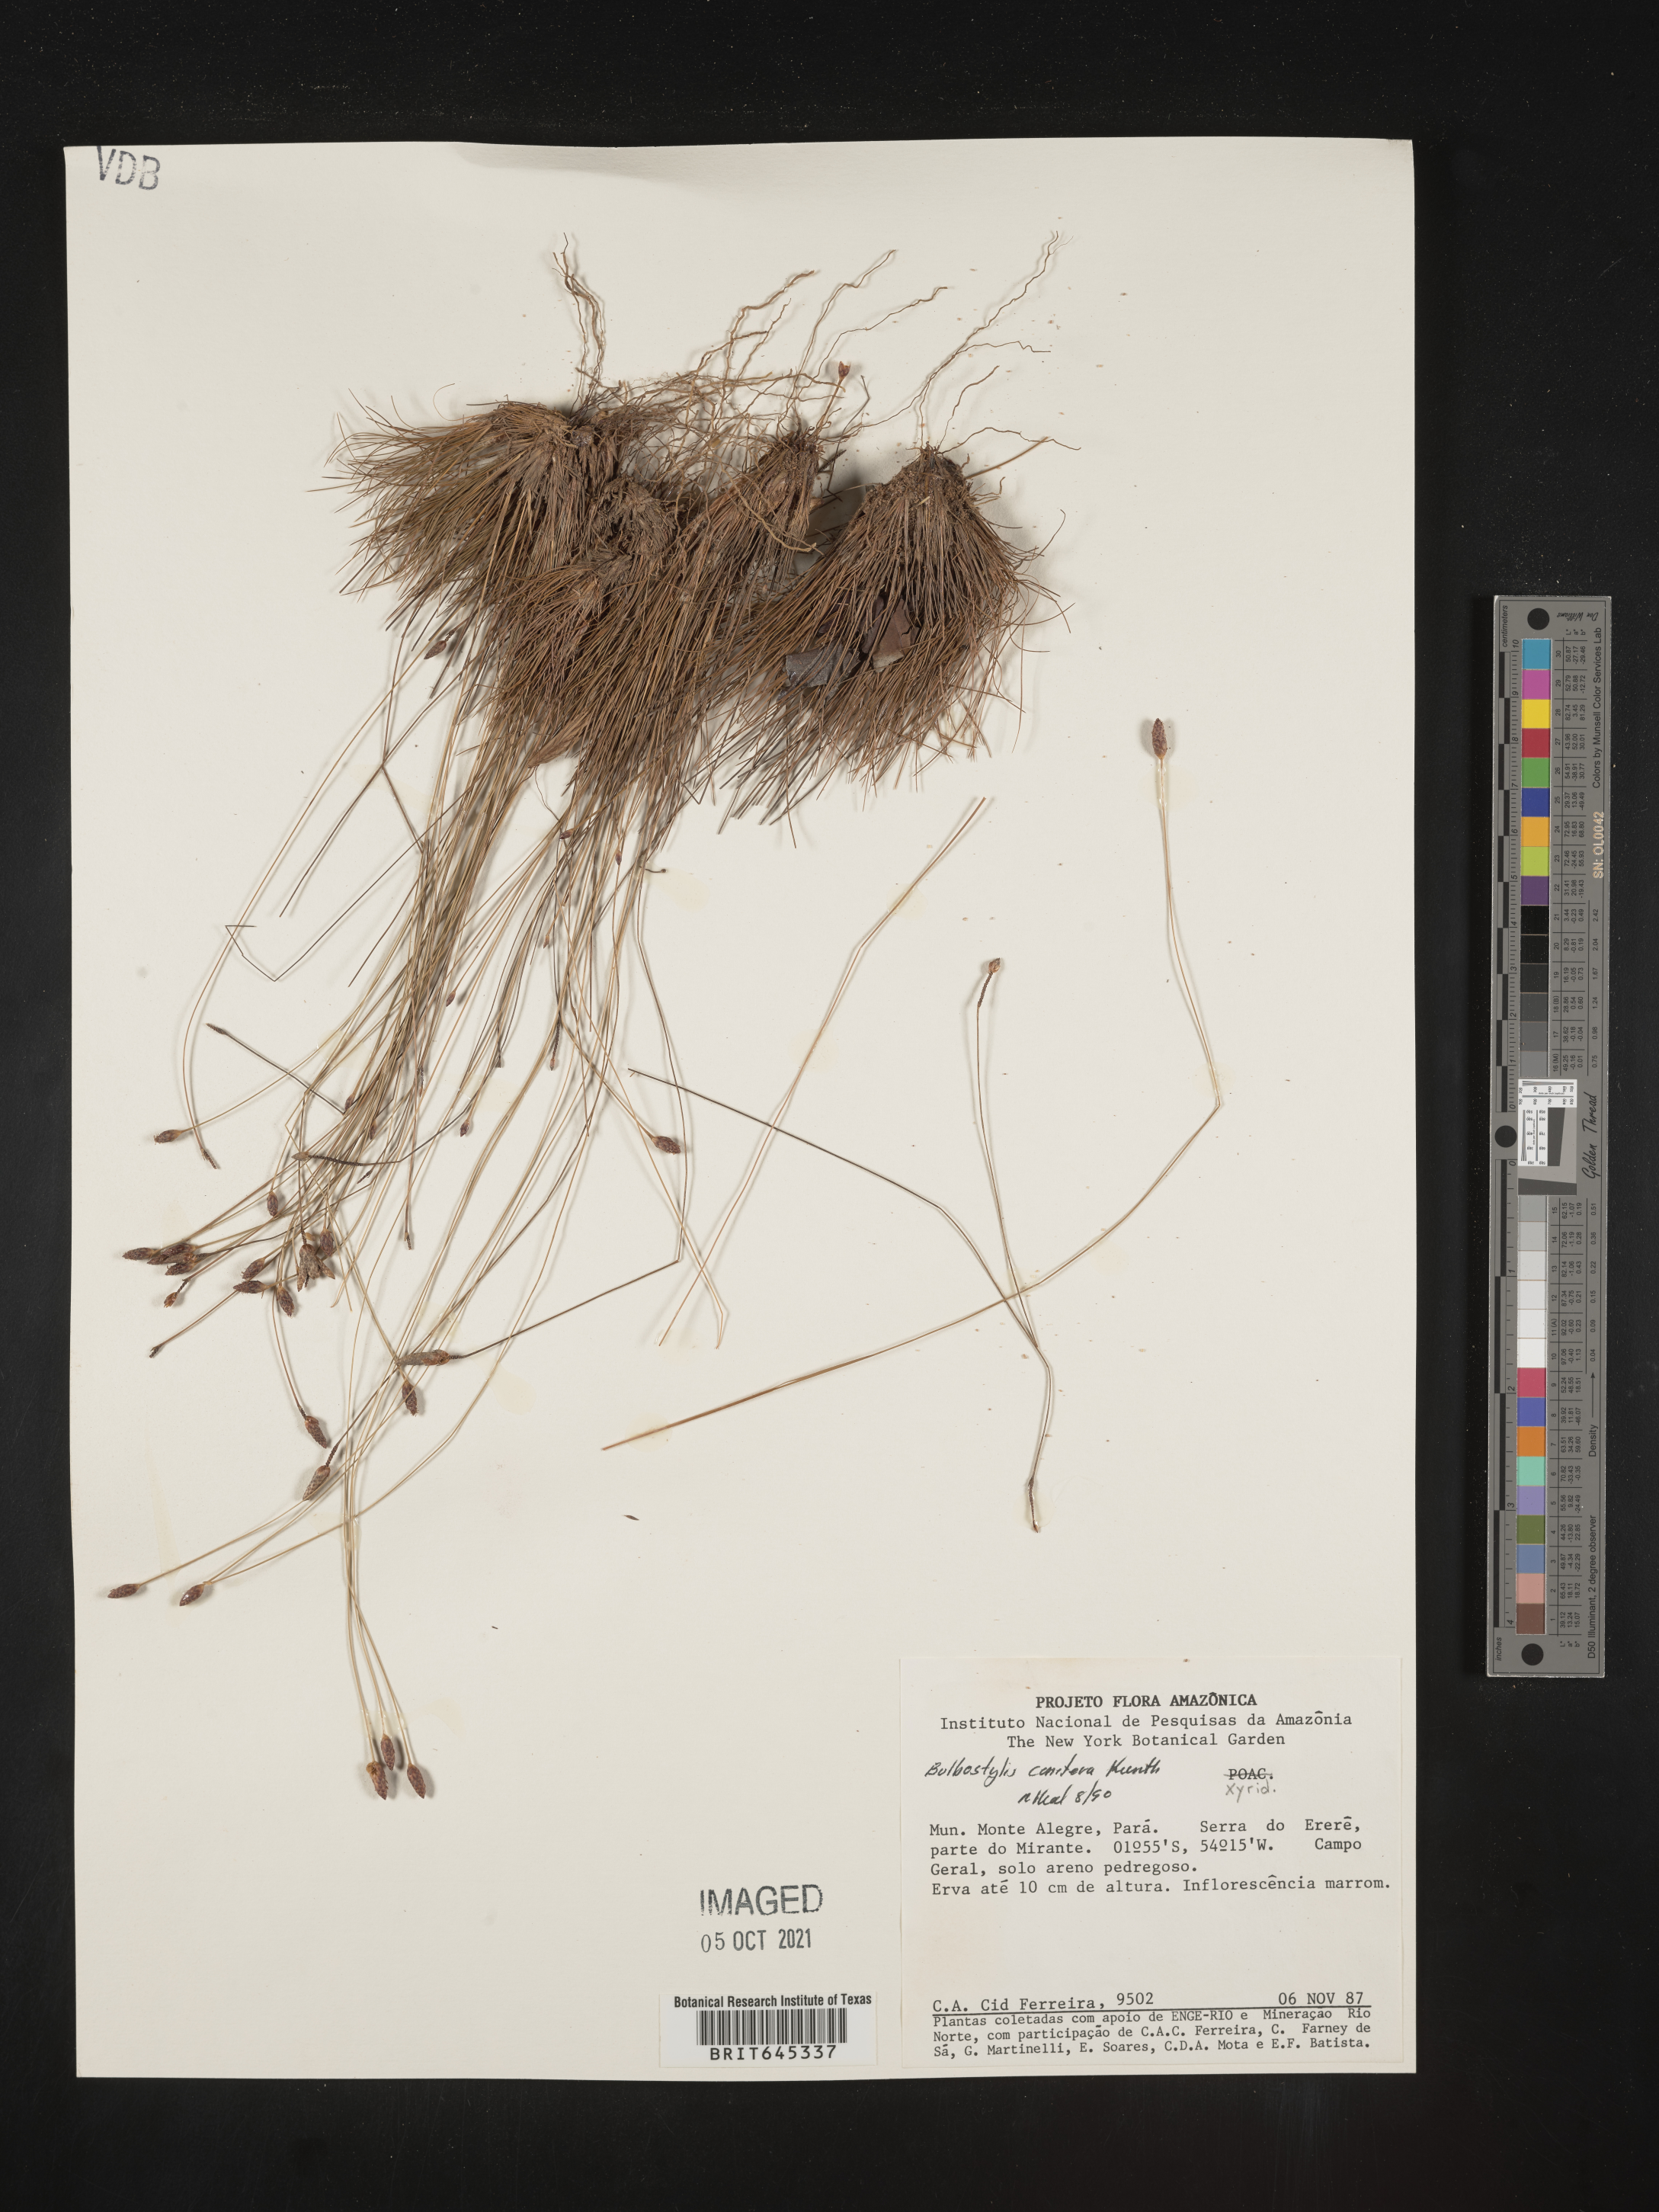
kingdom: Plantae
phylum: Tracheophyta
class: Liliopsida
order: Poales
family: Cyperaceae
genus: Bulbostylis
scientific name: Bulbostylis conifera
